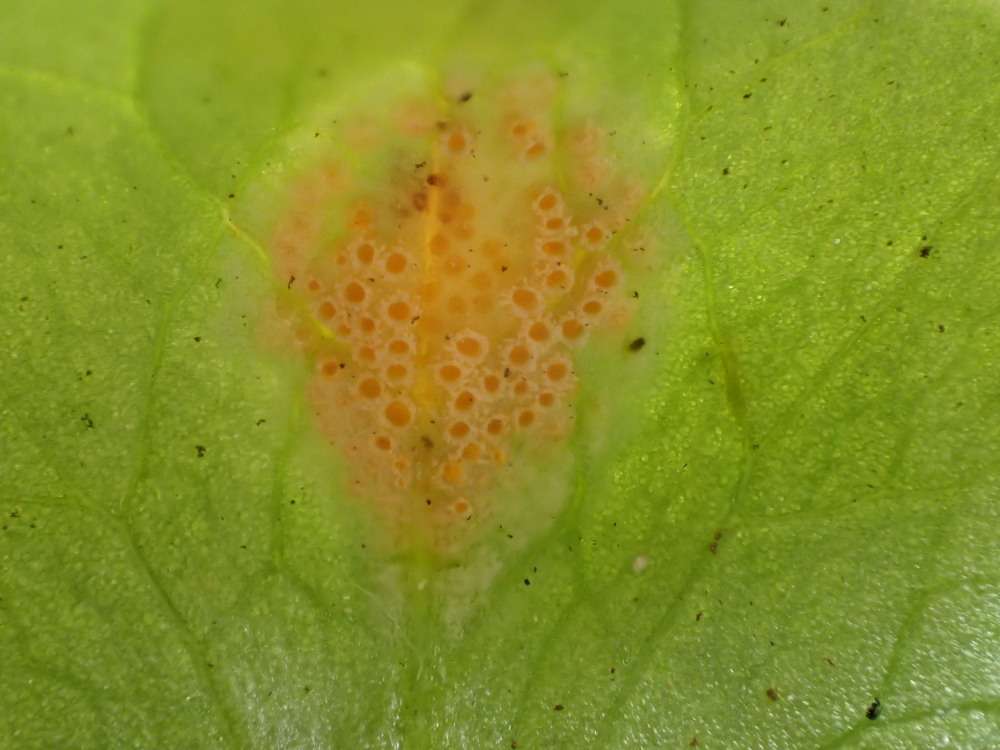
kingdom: Fungi
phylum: Basidiomycota
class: Pucciniomycetes
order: Pucciniales
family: Pucciniaceae
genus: Uromyces
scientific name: Uromyces dactylidis
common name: ranunkel-encellerust
